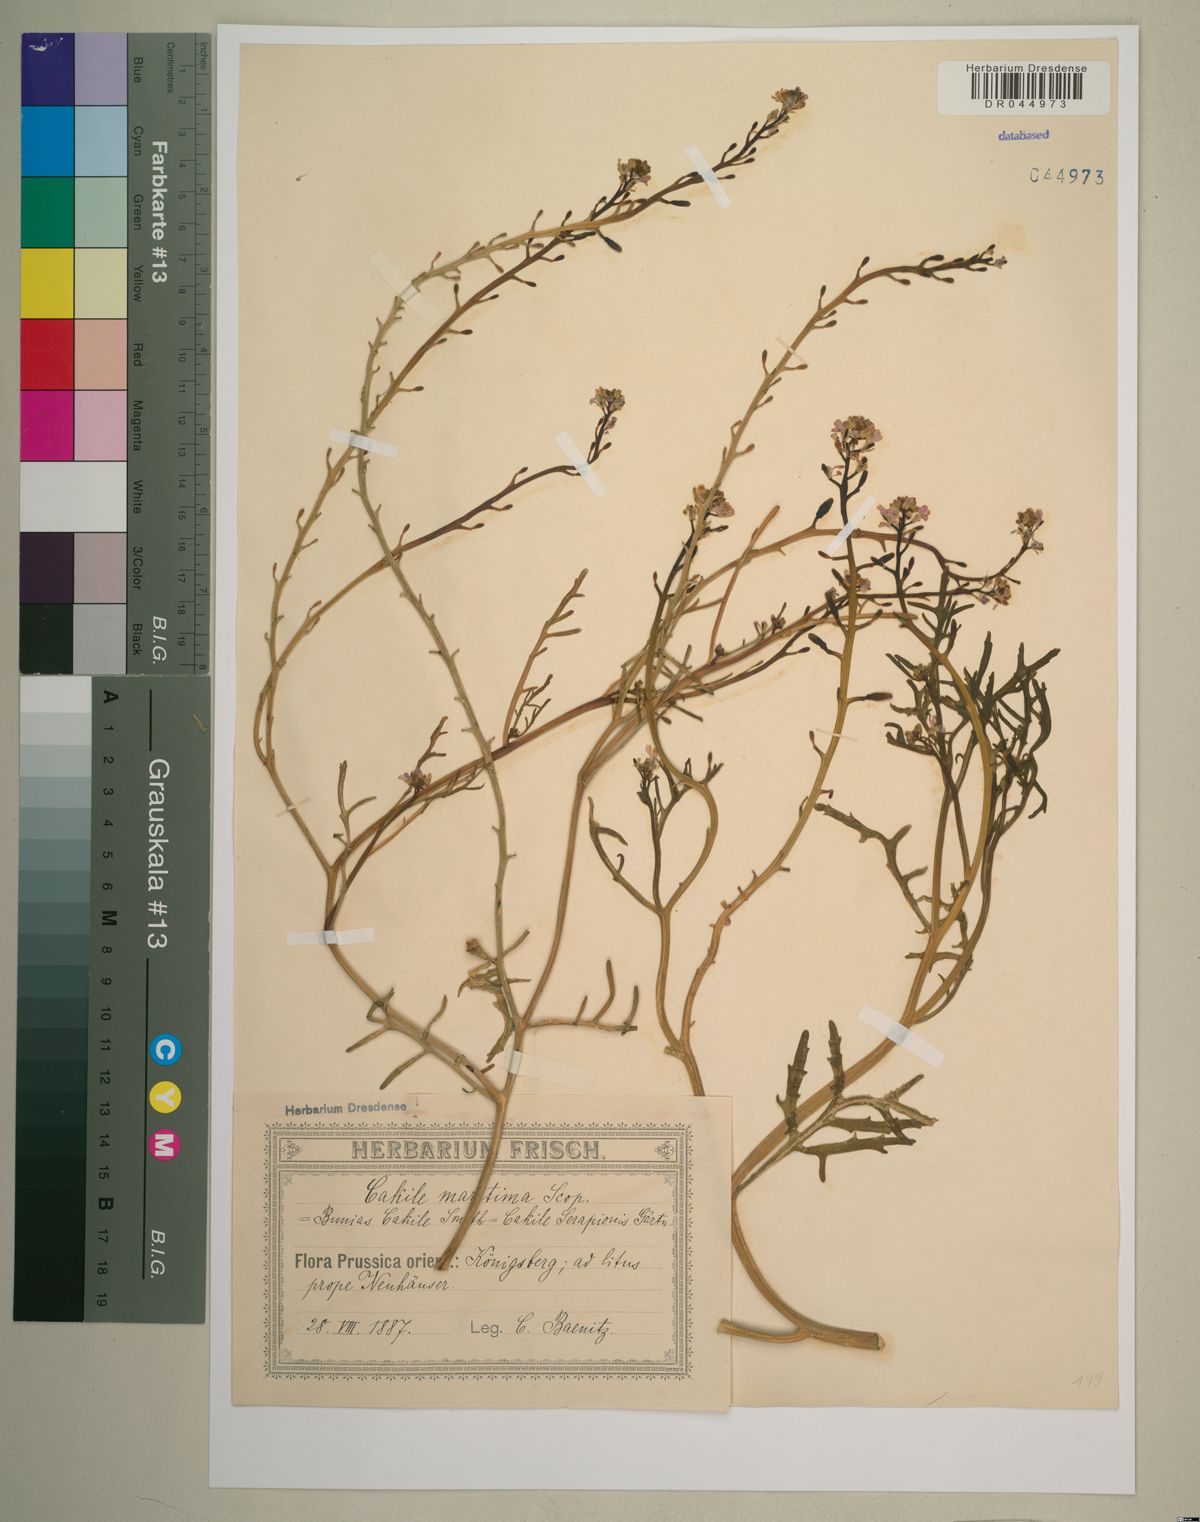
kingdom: Plantae
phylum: Tracheophyta
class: Magnoliopsida
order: Brassicales
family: Brassicaceae
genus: Cakile
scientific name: Cakile maritima
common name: Sea rocket
